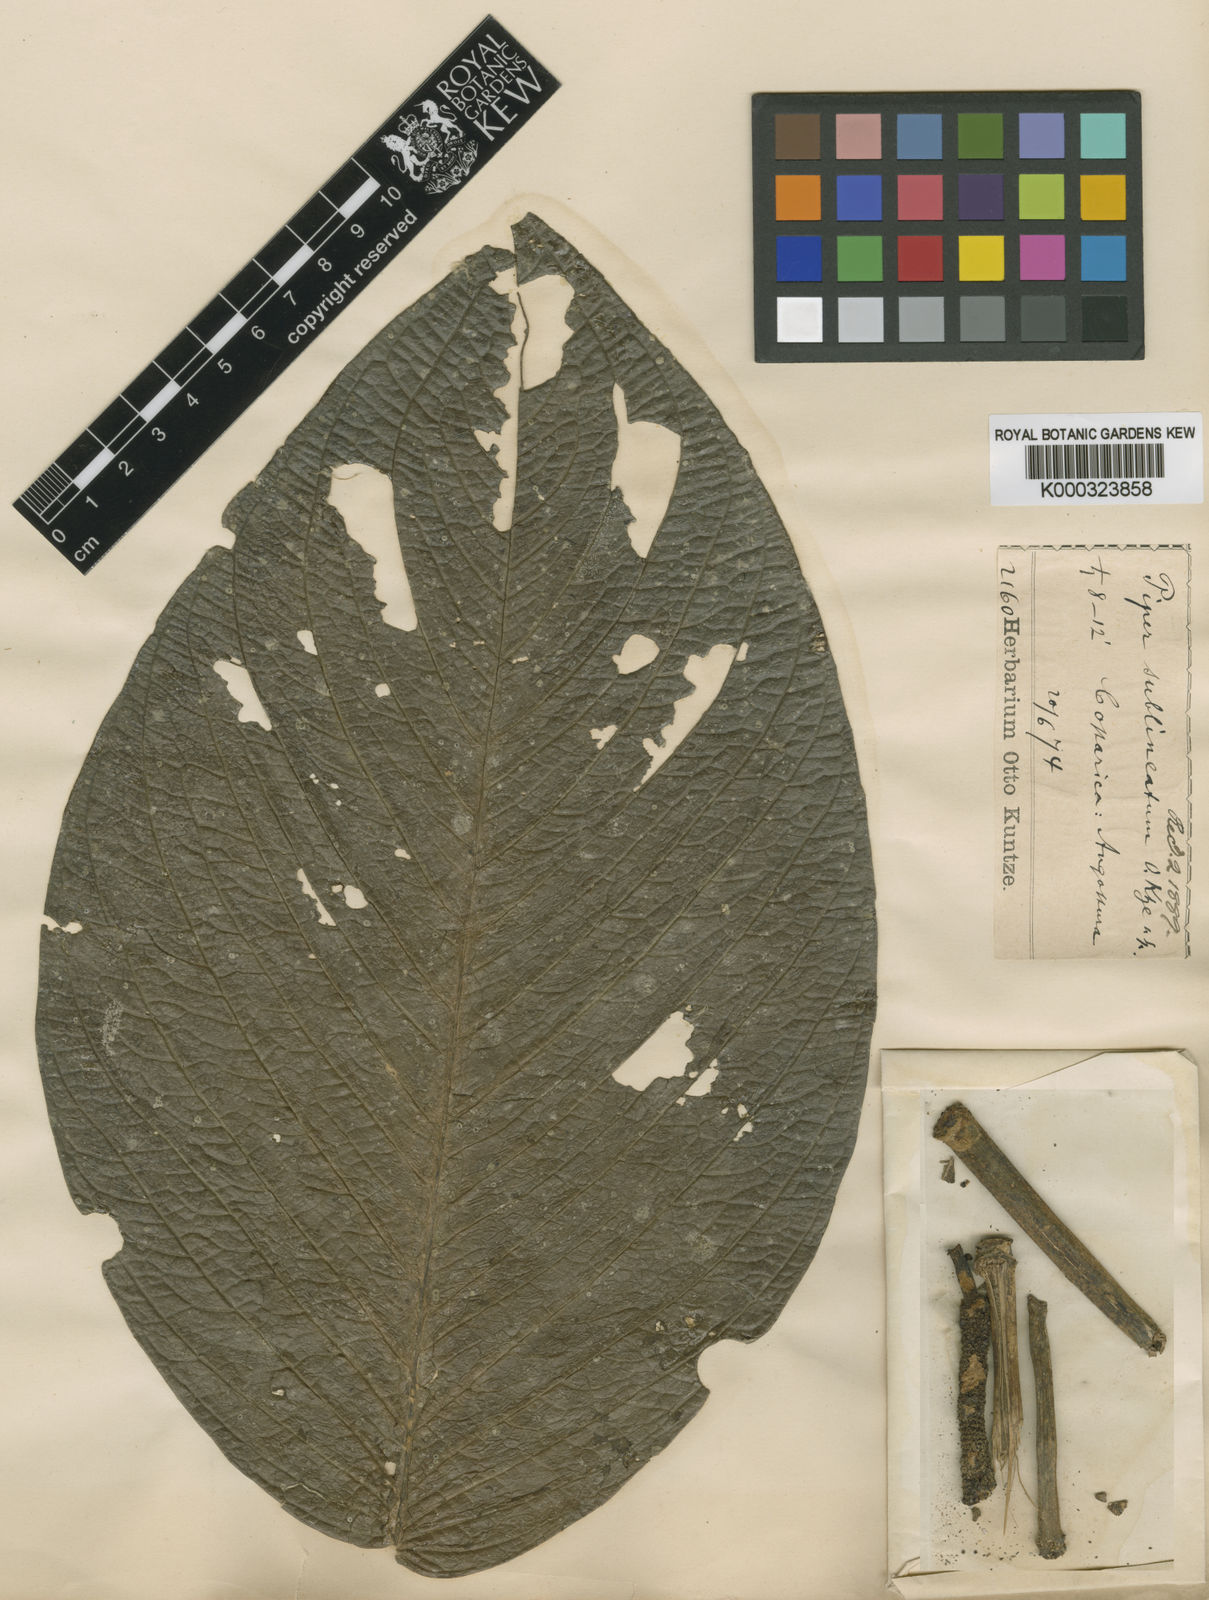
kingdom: Plantae
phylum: Tracheophyta
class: Magnoliopsida
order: Piperales
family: Piperaceae
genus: Piper
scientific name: Piper sublineatum
